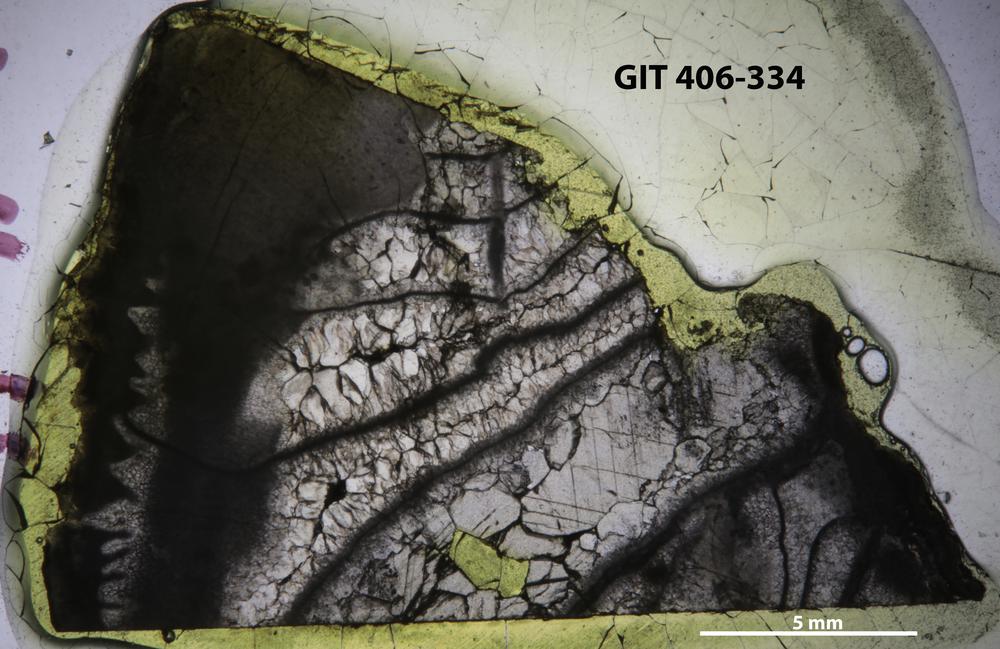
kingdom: Animalia
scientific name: Animalia
